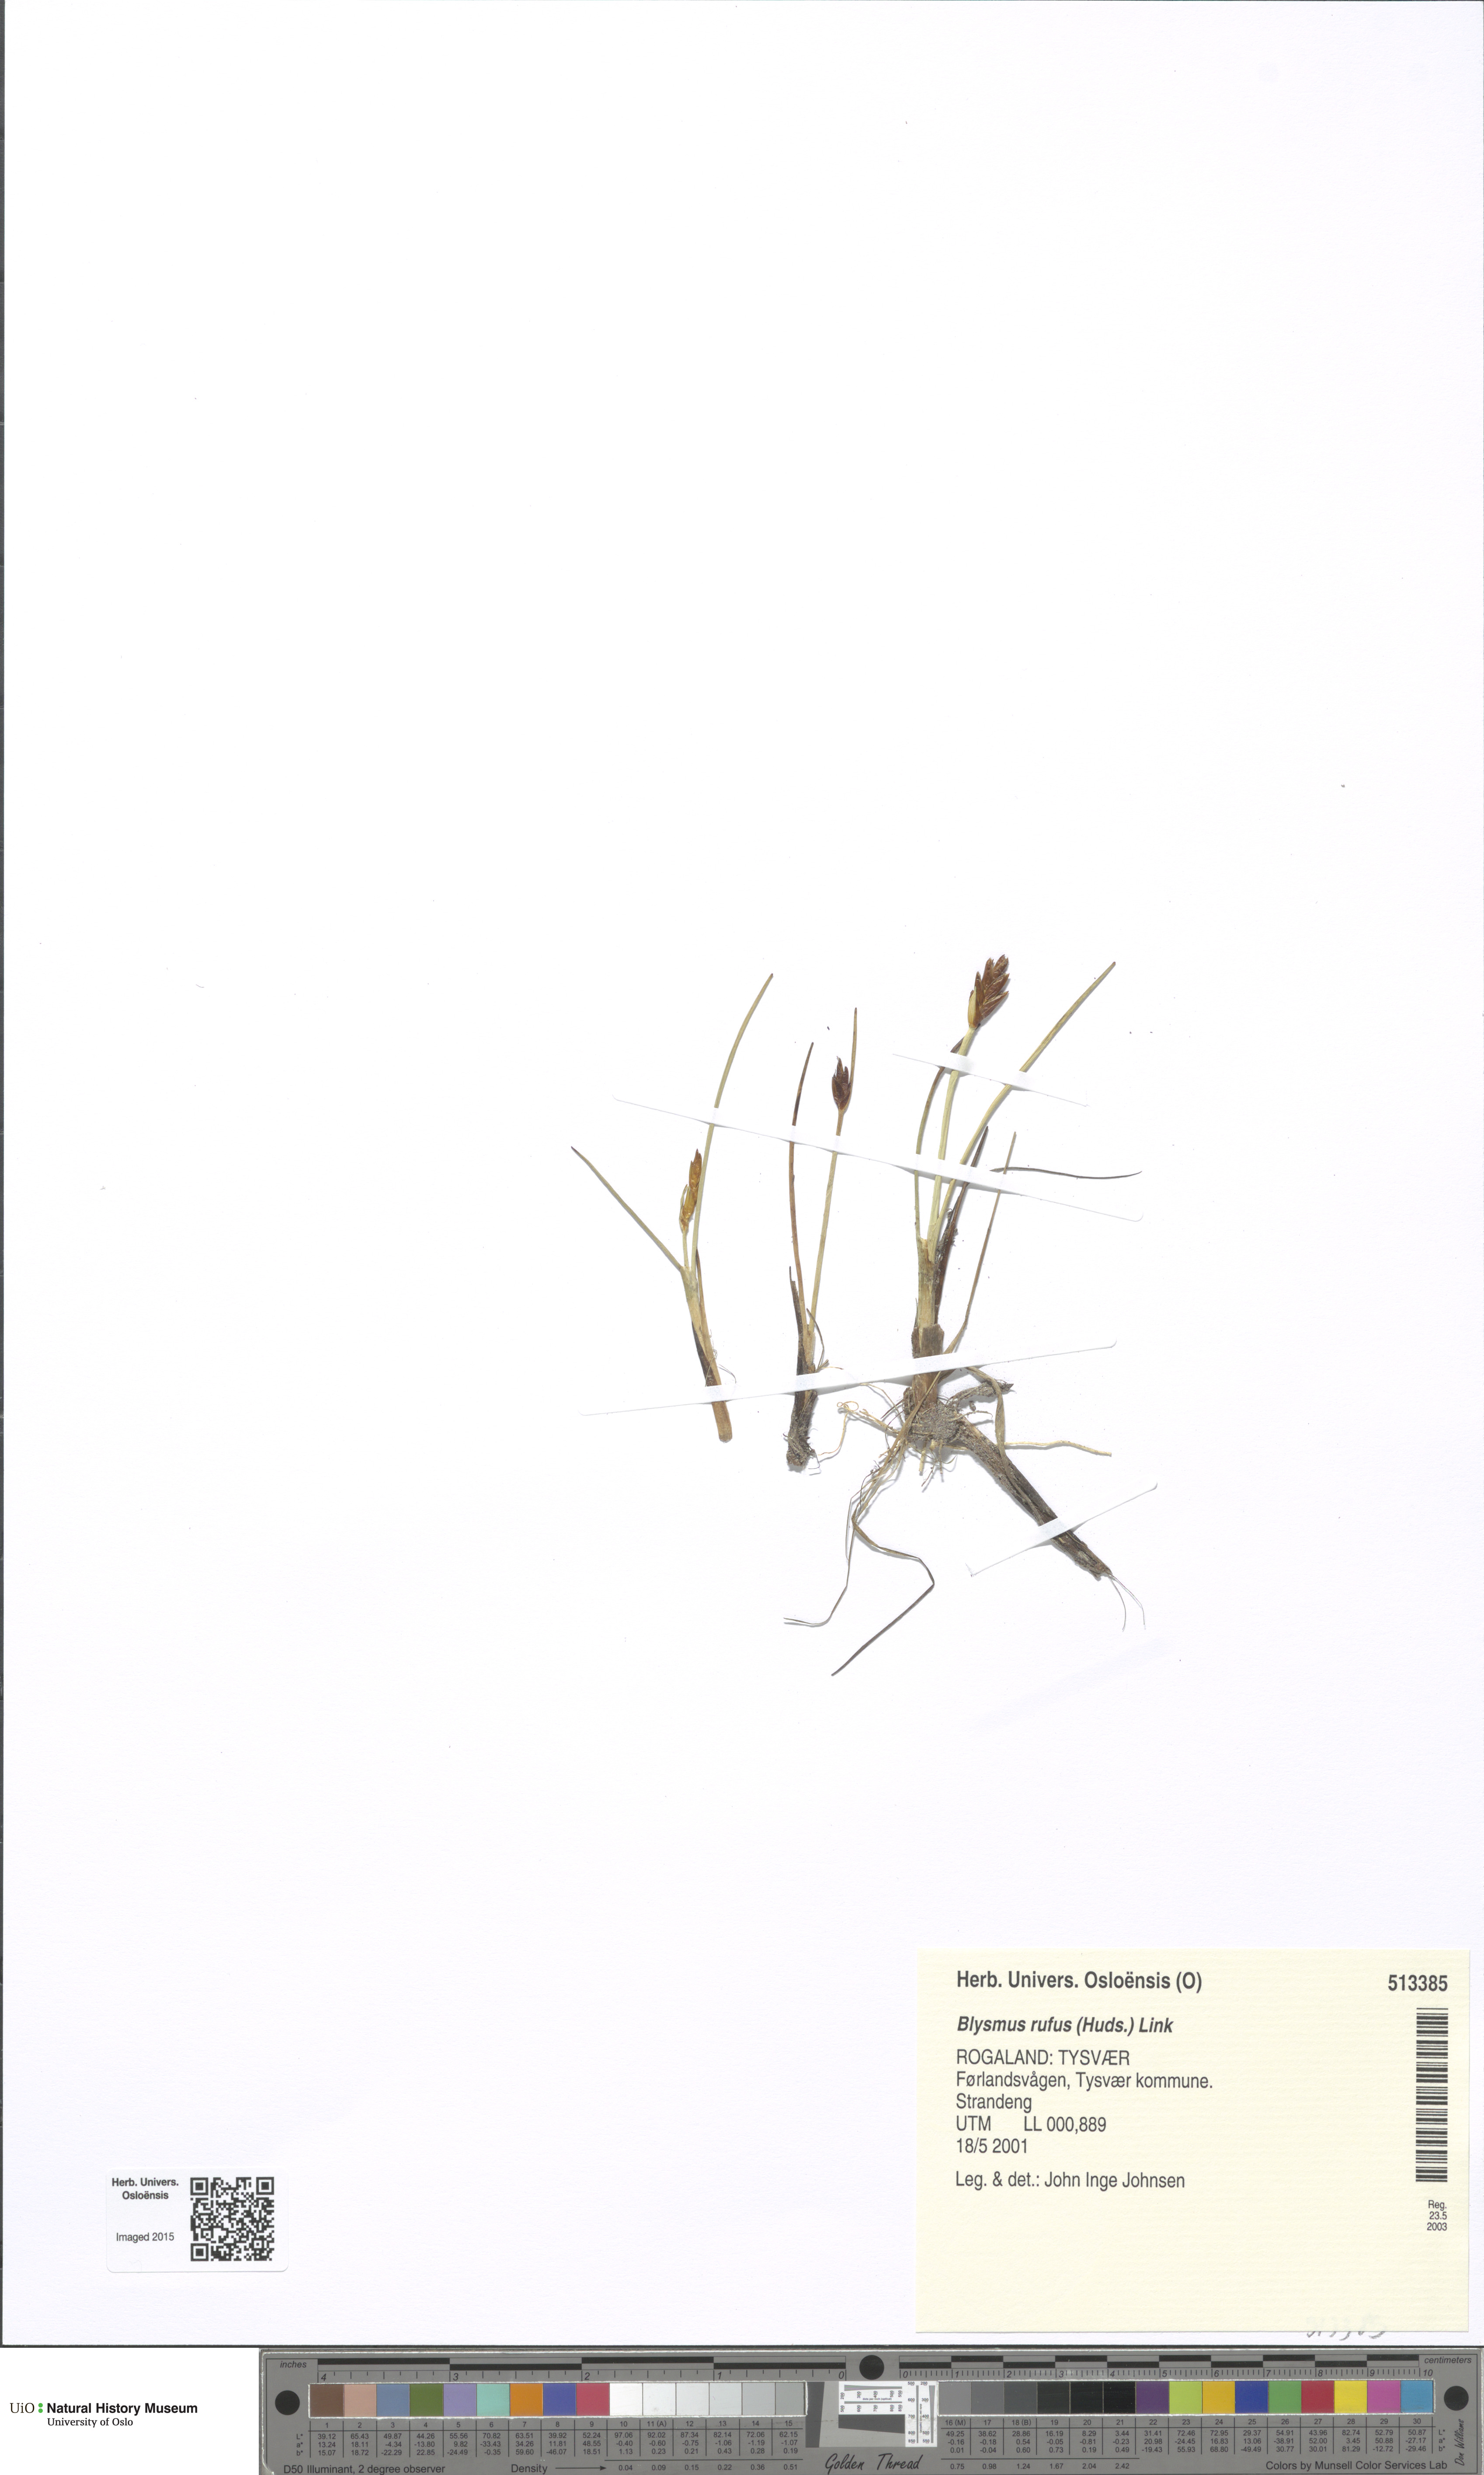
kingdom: Plantae
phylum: Tracheophyta
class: Liliopsida
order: Poales
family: Cyperaceae
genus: Blysmus
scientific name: Blysmus rufus
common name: Saltmarsh flat-sedge
